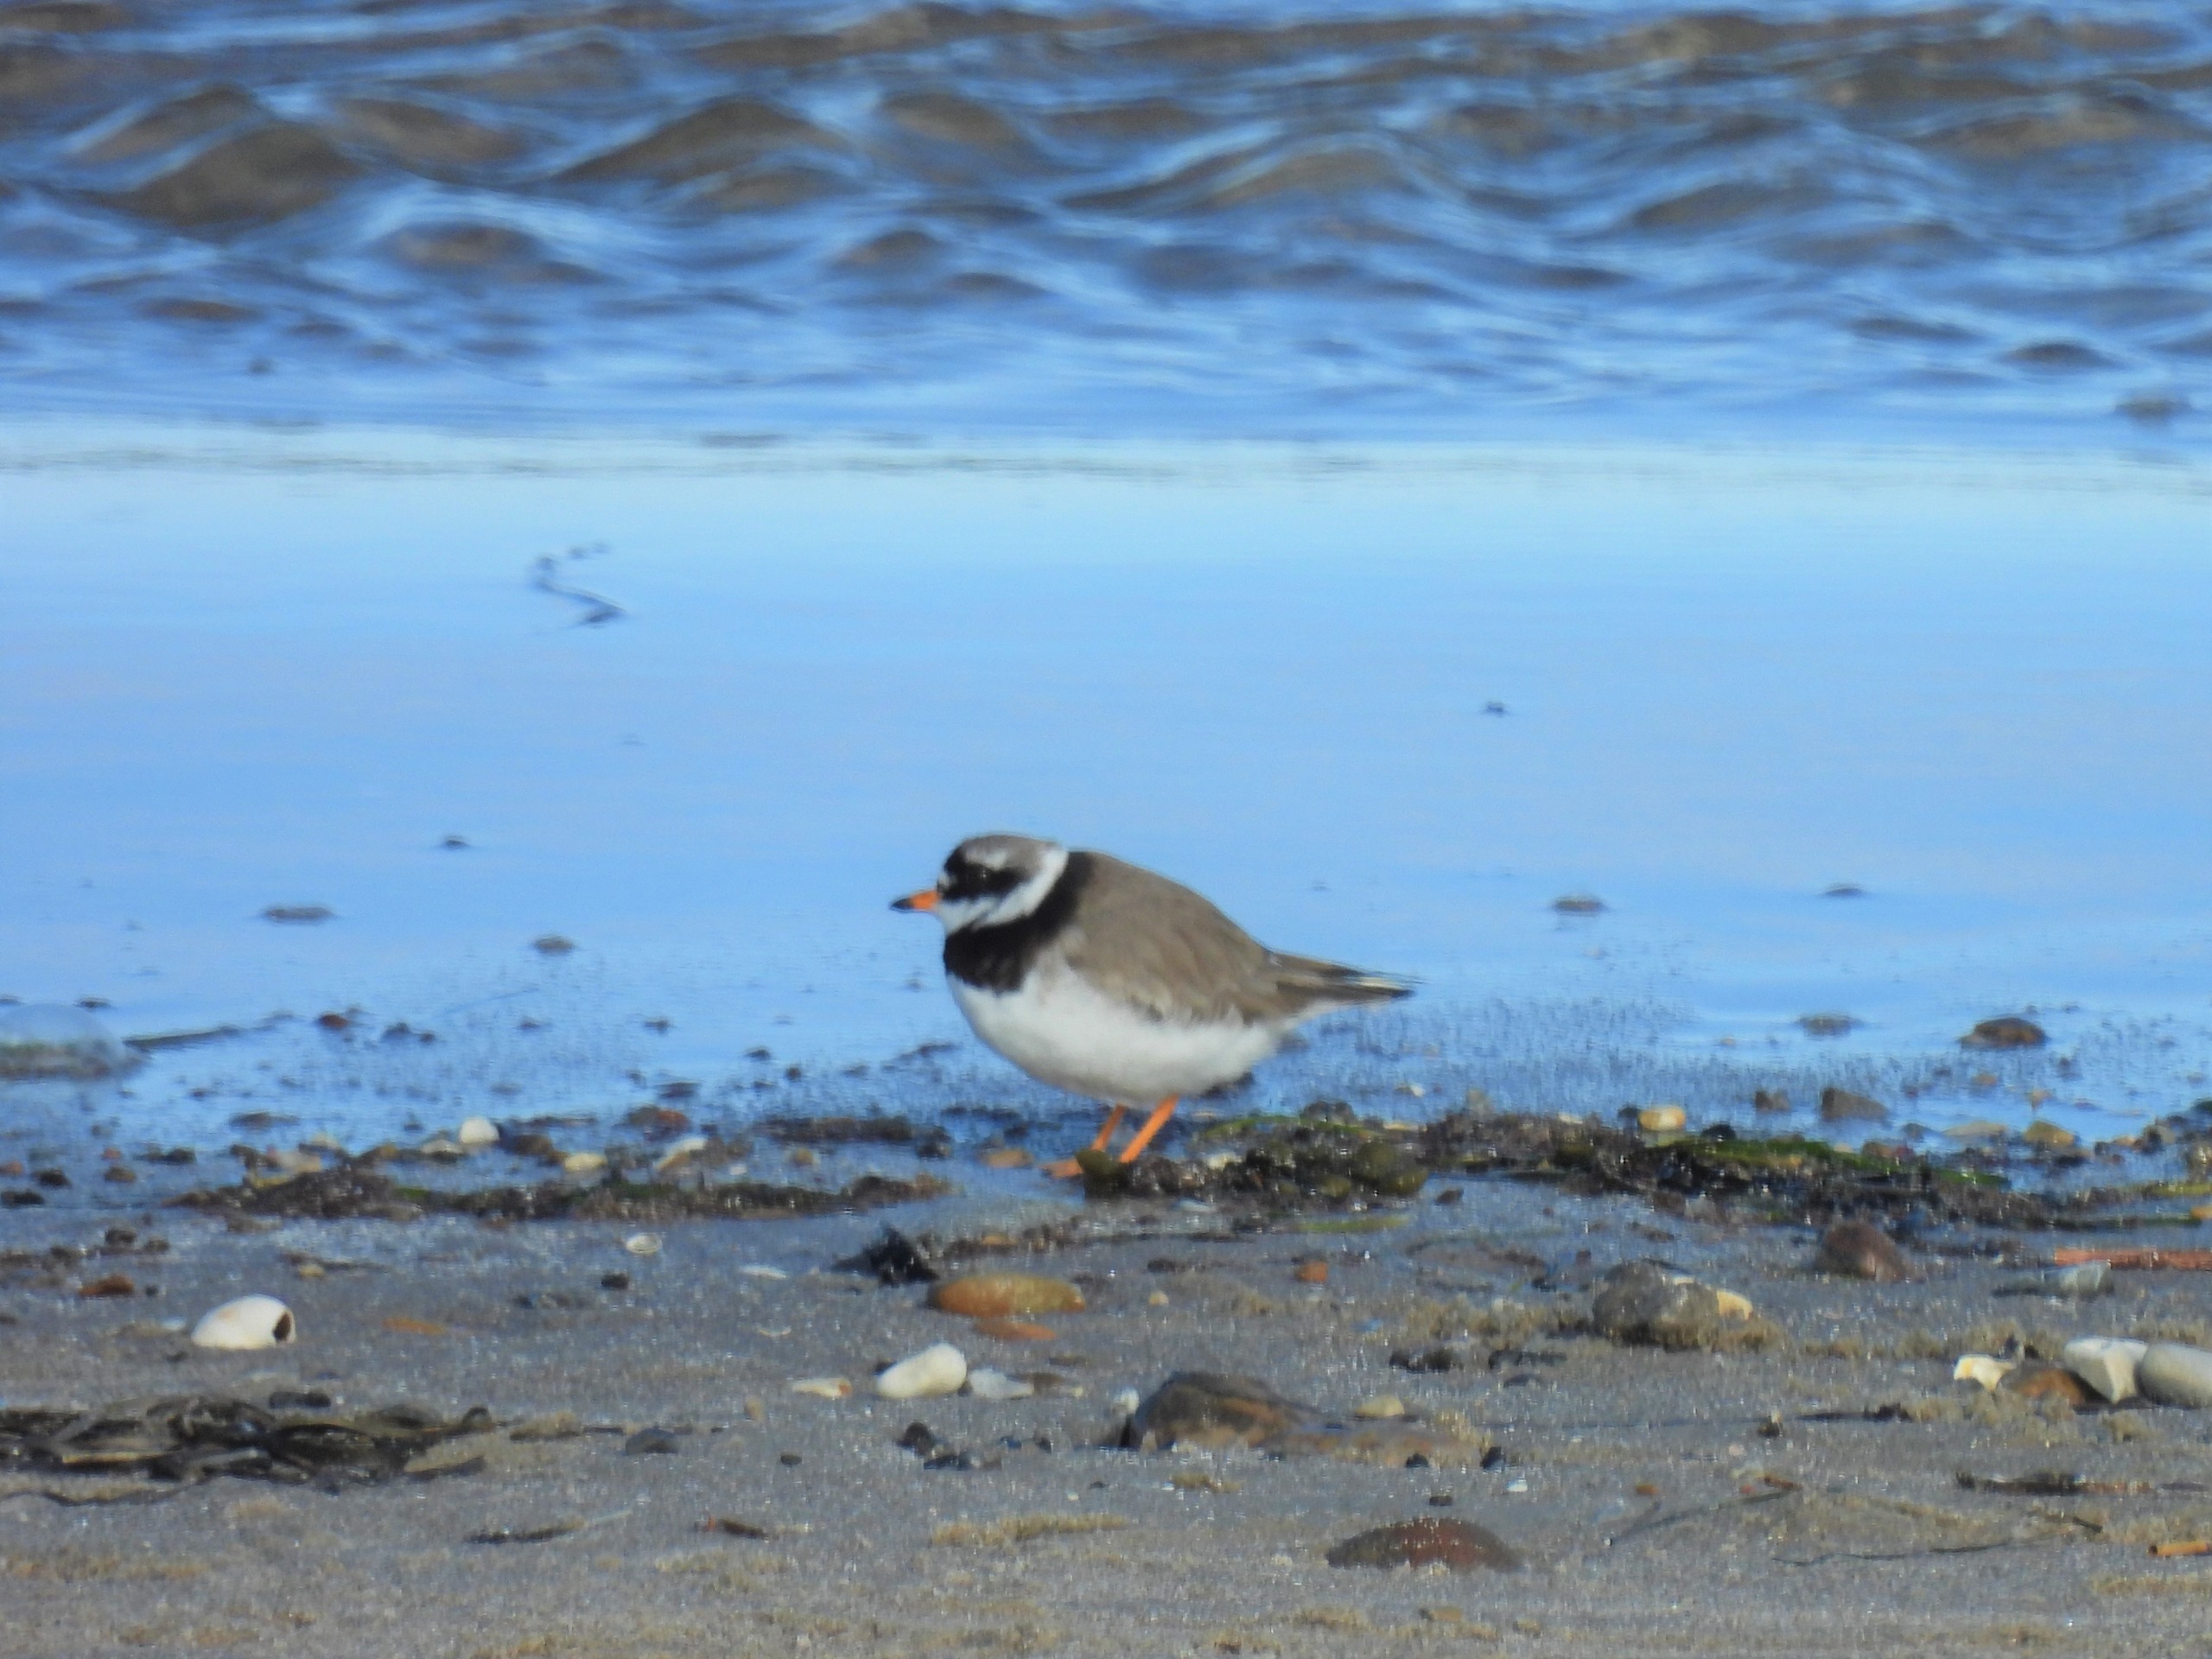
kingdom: Animalia
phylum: Chordata
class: Aves
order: Charadriiformes
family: Charadriidae
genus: Charadrius
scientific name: Charadrius hiaticula
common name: Stor præstekrave
